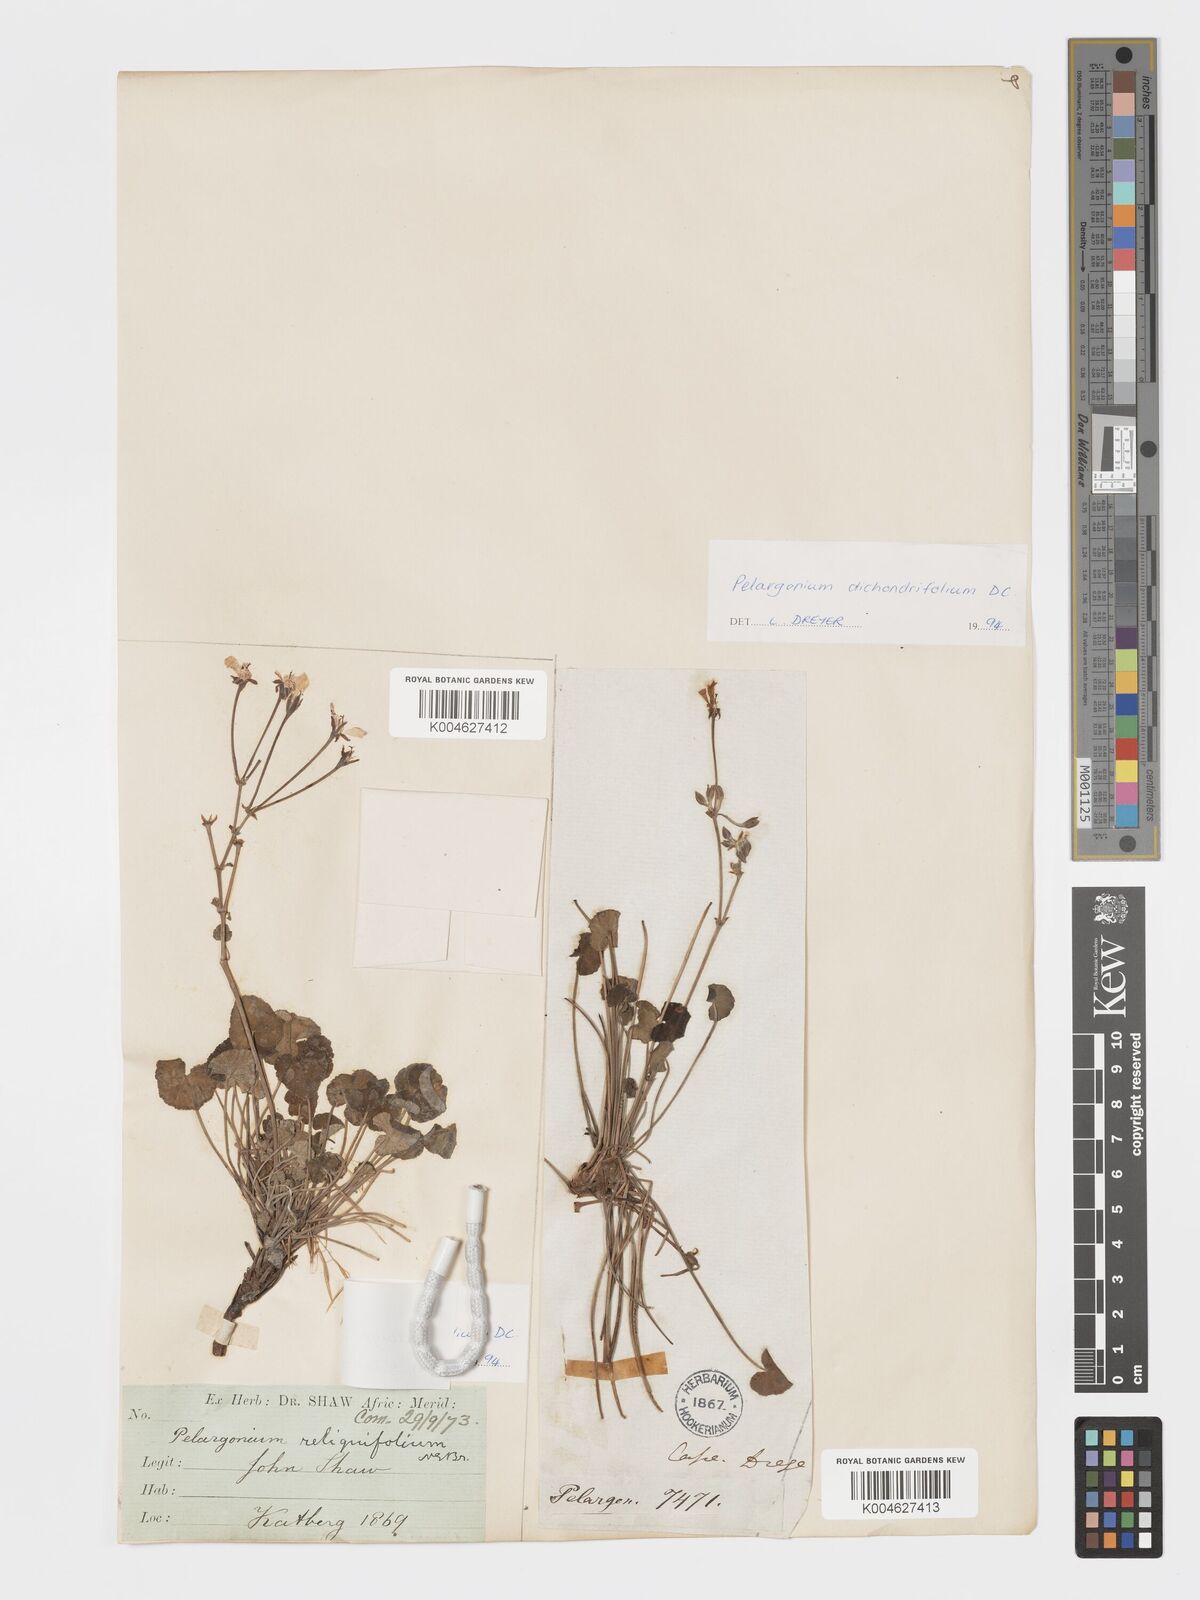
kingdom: Plantae
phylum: Tracheophyta
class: Magnoliopsida
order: Geraniales
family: Geraniaceae
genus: Pelargonium
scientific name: Pelargonium dichondrifolium
